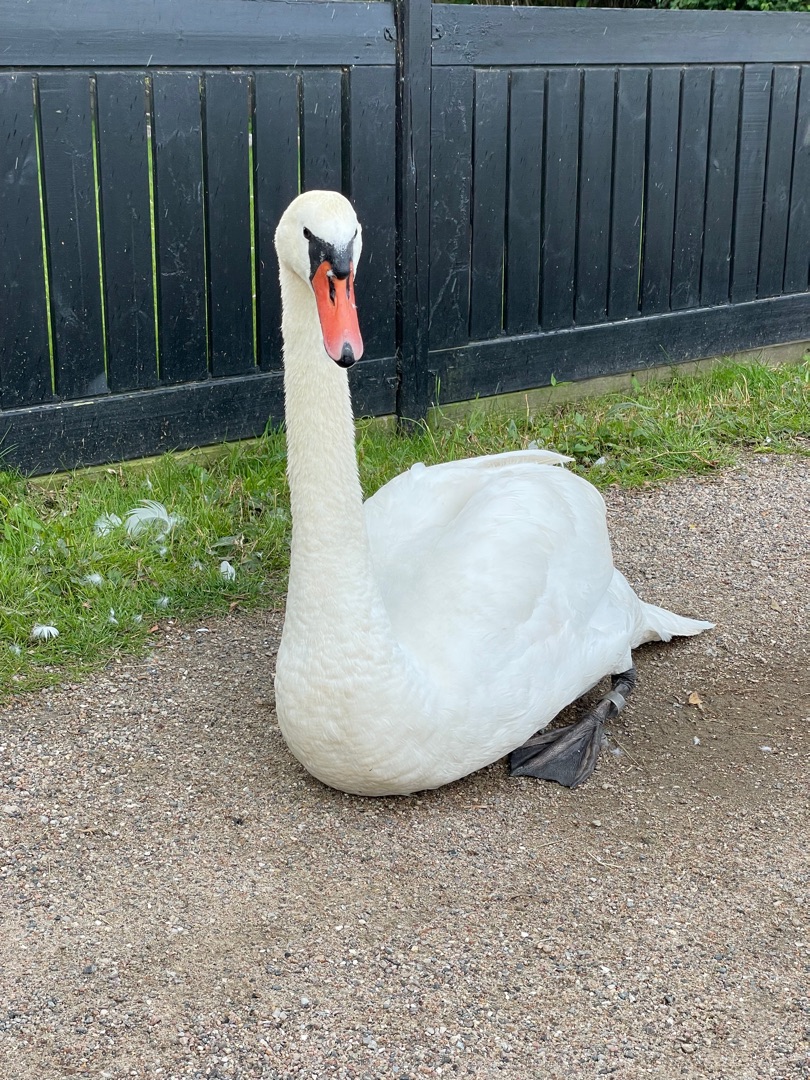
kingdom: Animalia
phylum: Chordata
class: Aves
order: Anseriformes
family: Anatidae
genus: Cygnus
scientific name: Cygnus olor
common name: Knopsvane
